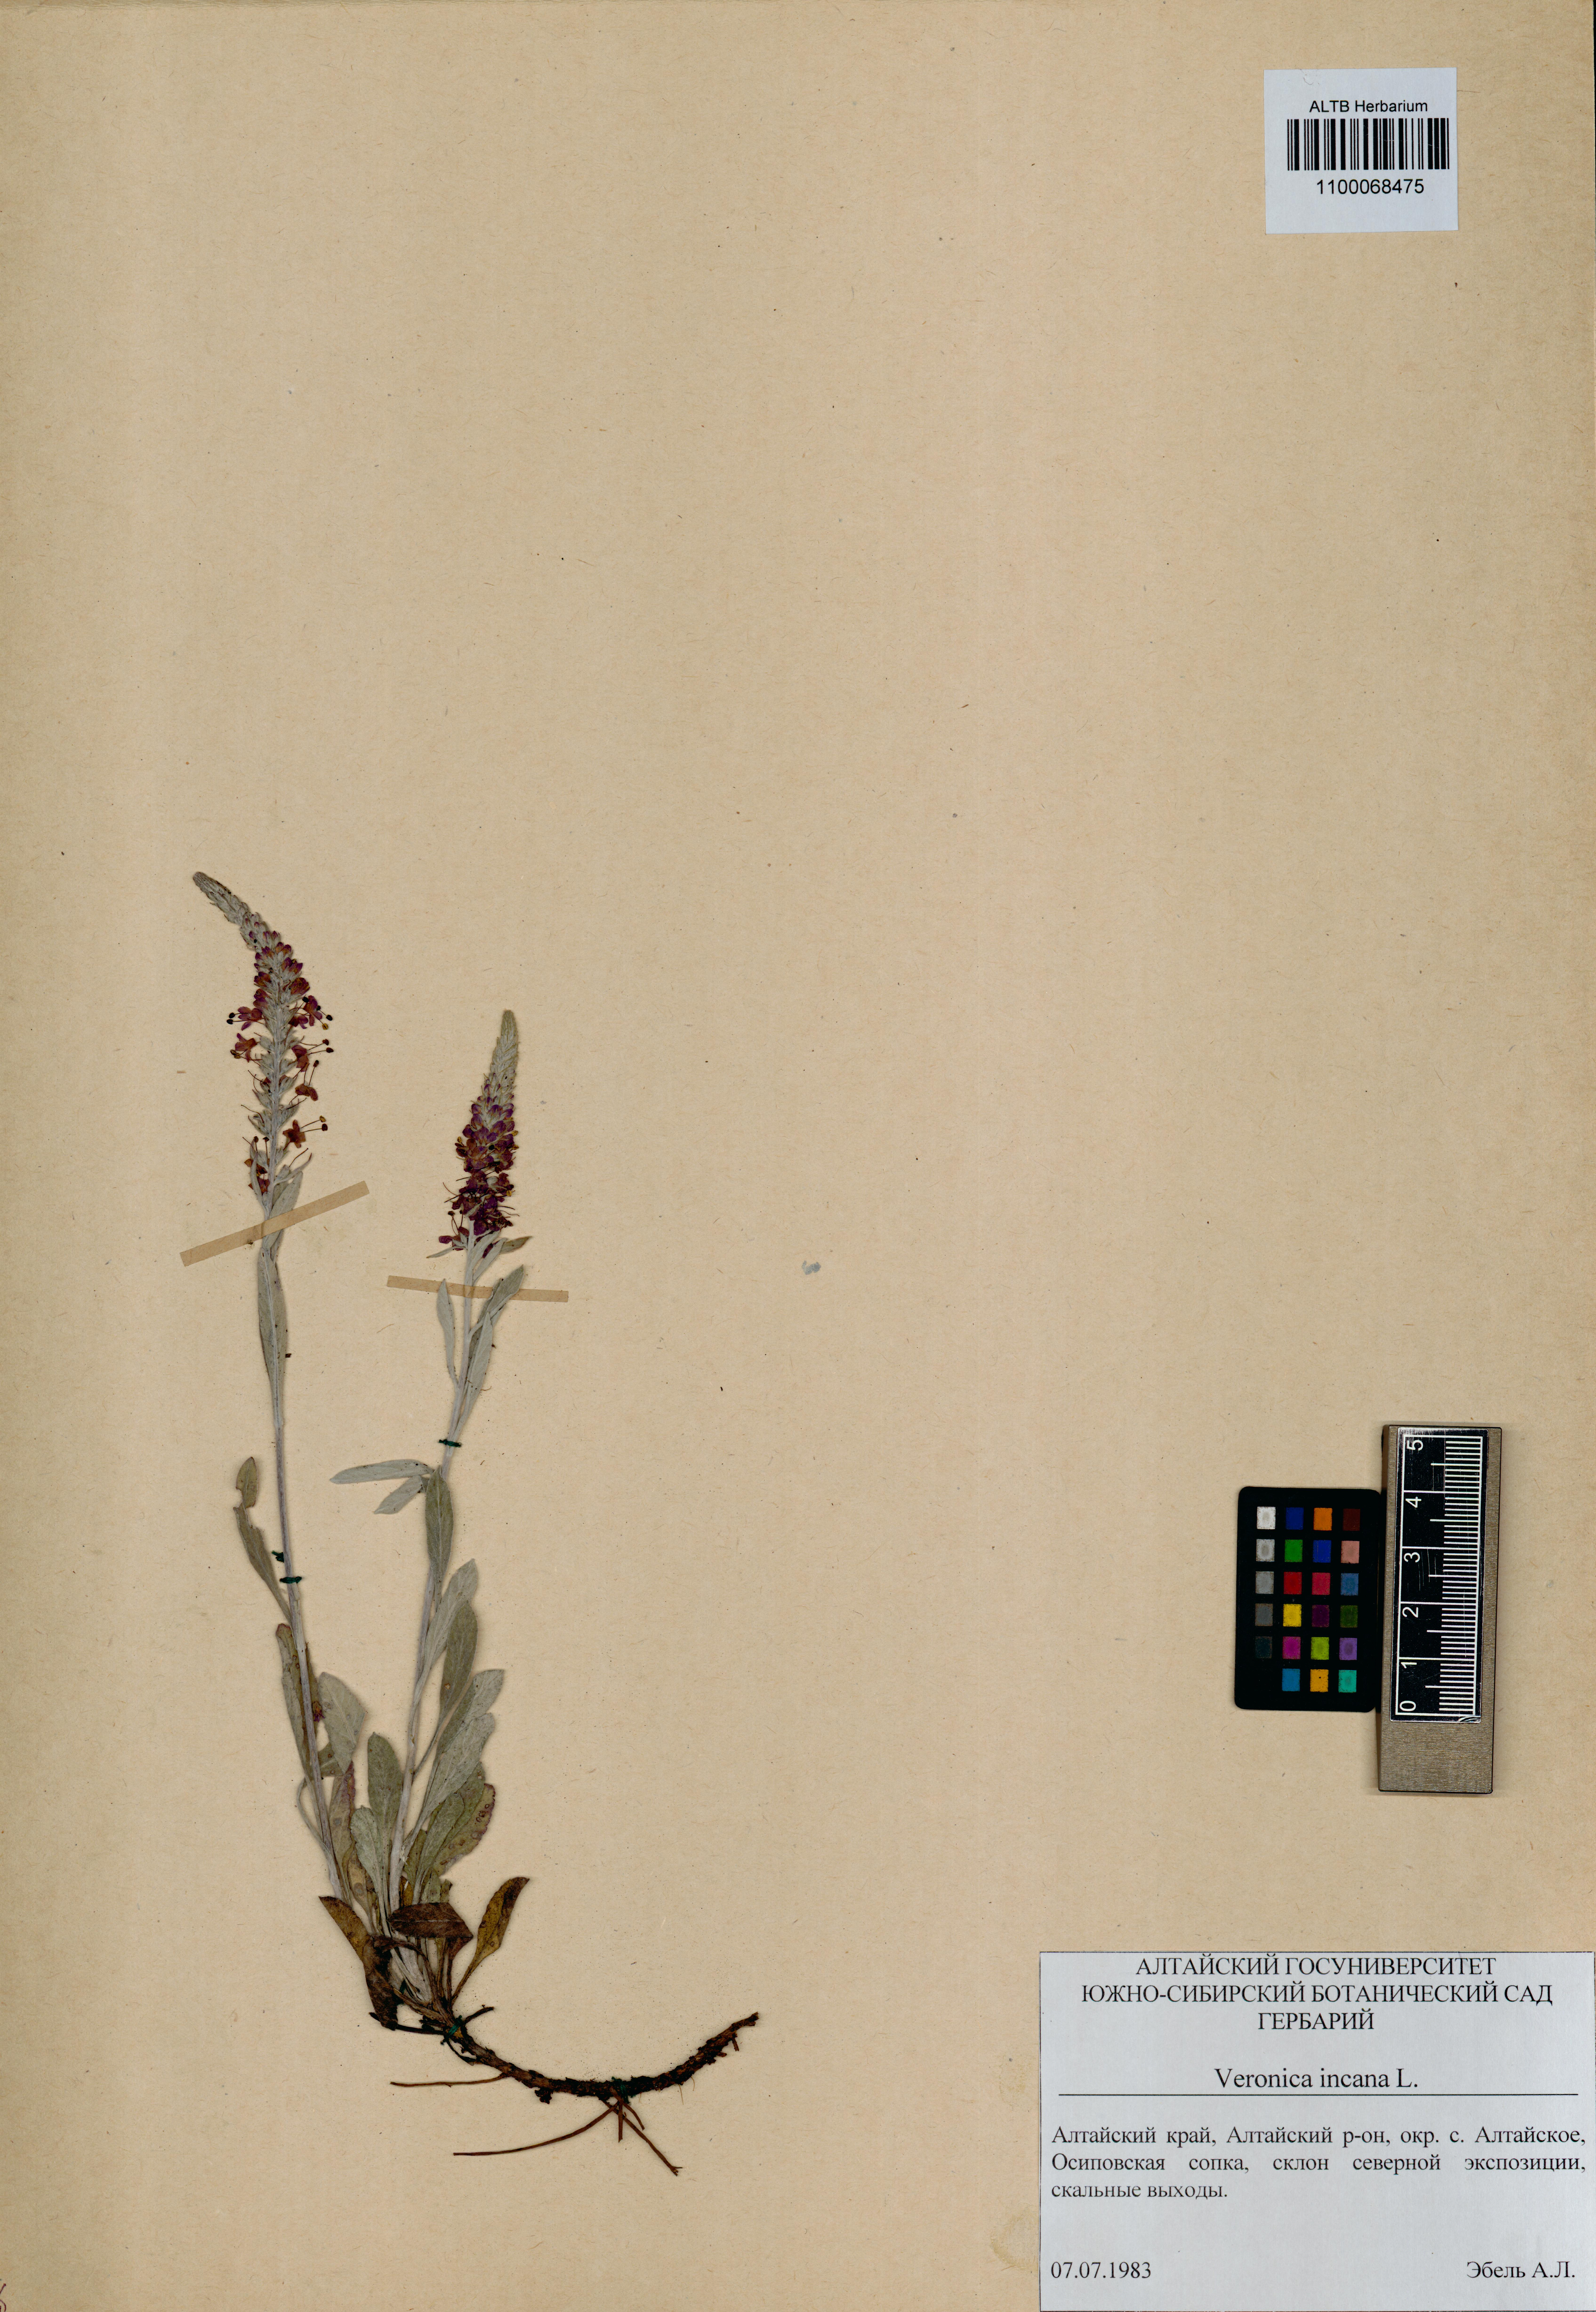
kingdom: Plantae
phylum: Tracheophyta
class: Magnoliopsida
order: Lamiales
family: Plantaginaceae
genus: Veronica
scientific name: Veronica incana
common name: Silver speedwell
